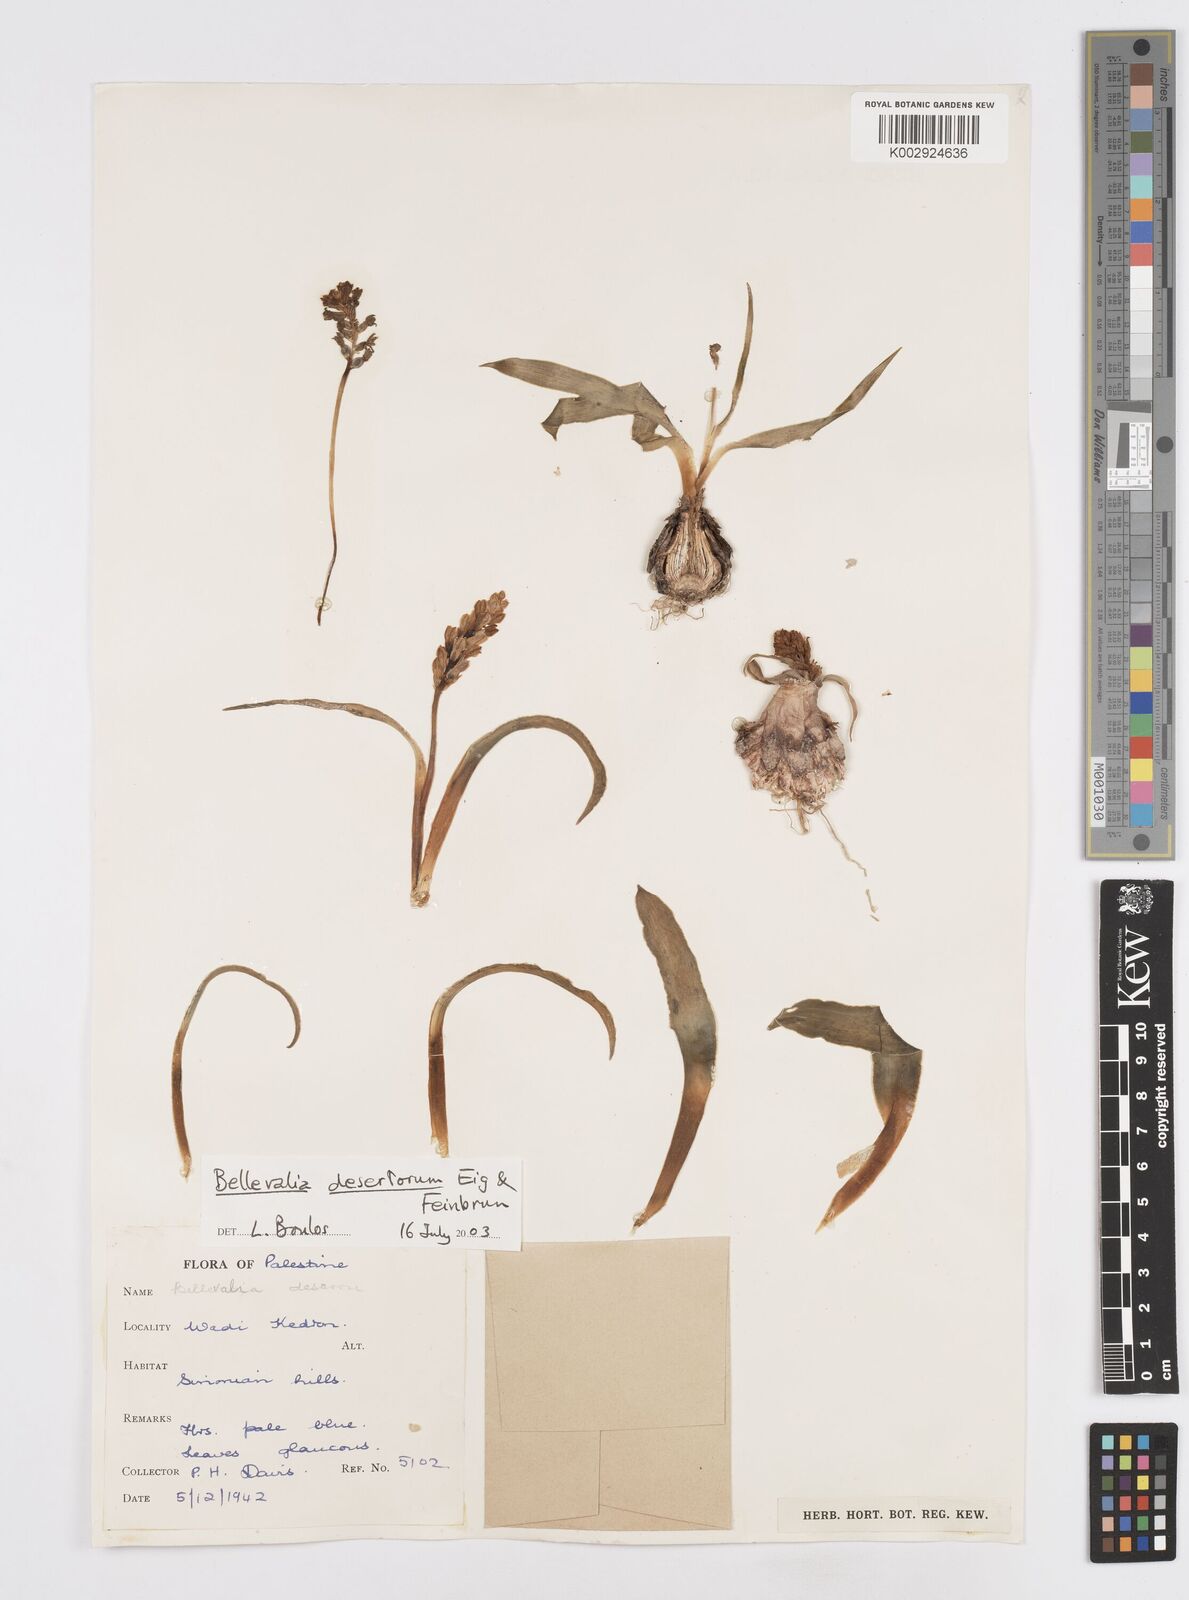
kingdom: Plantae
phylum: Tracheophyta
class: Liliopsida
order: Asparagales
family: Asparagaceae
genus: Bellevalia
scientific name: Bellevalia desertorum
